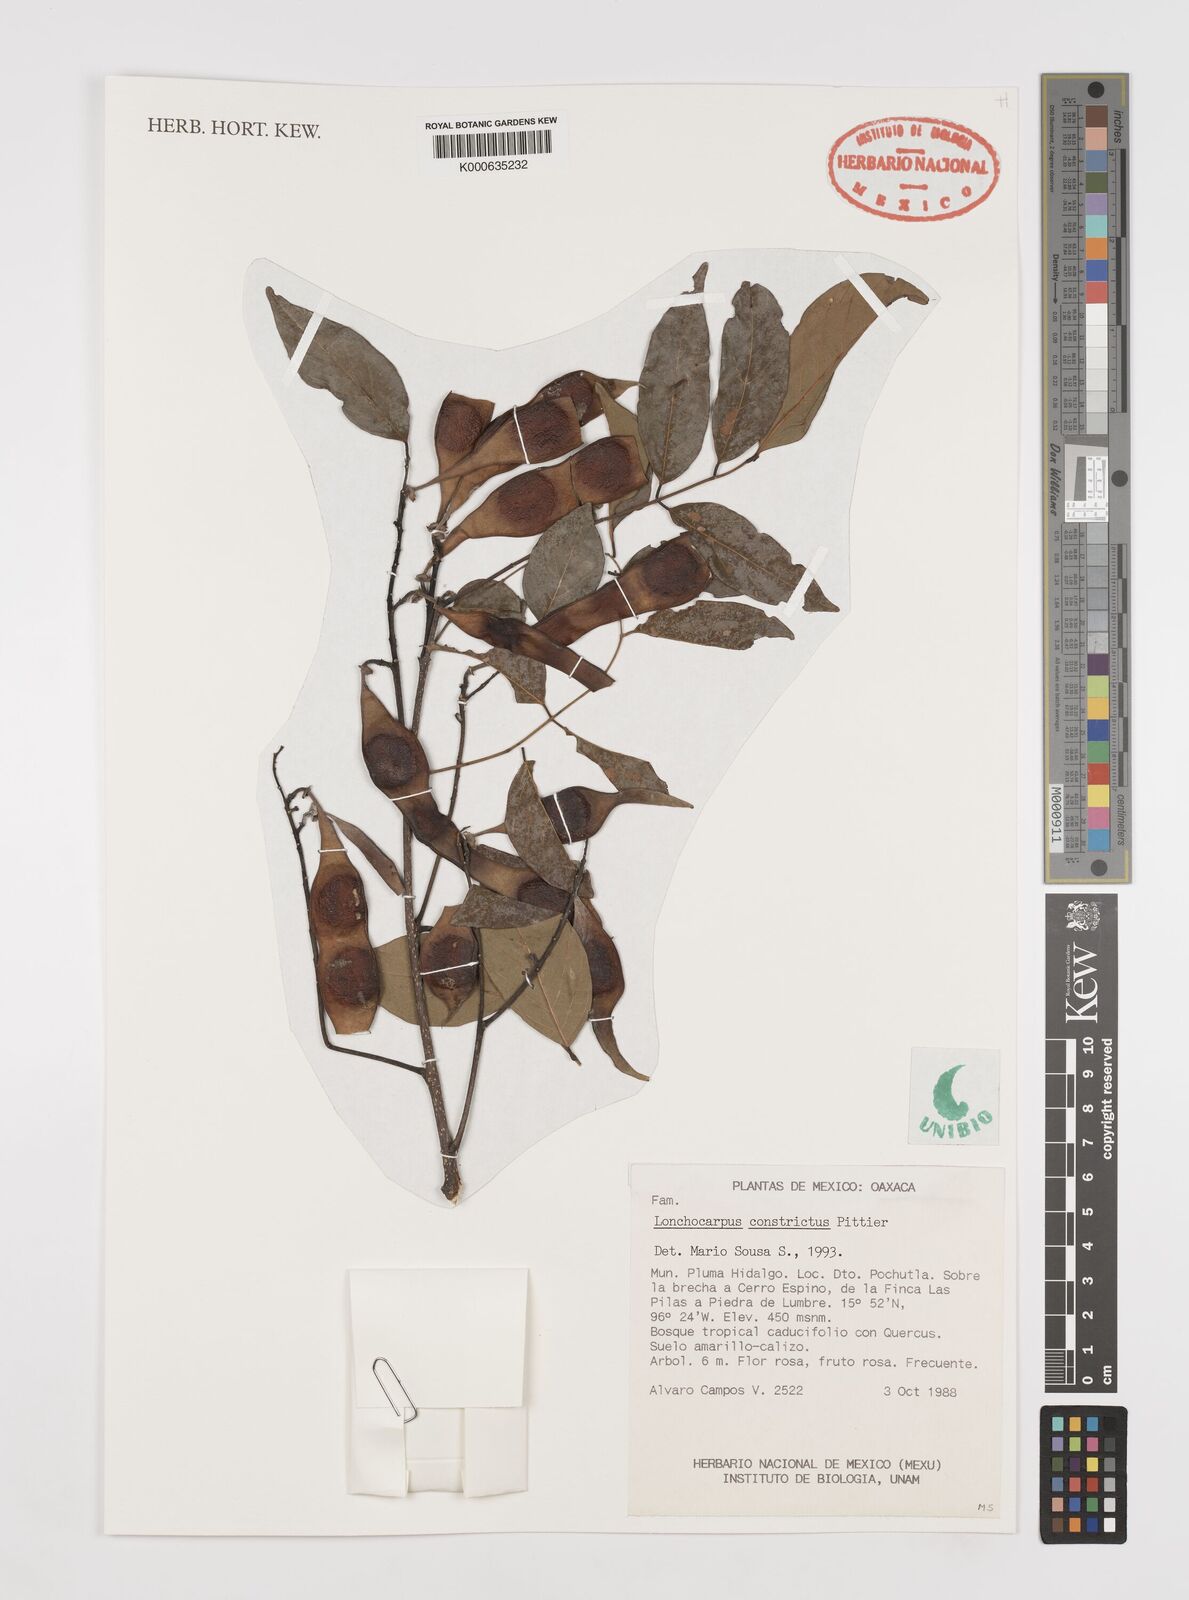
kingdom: Plantae
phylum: Tracheophyta
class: Magnoliopsida
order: Fabales
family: Fabaceae
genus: Lonchocarpus
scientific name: Lonchocarpus constrictus
